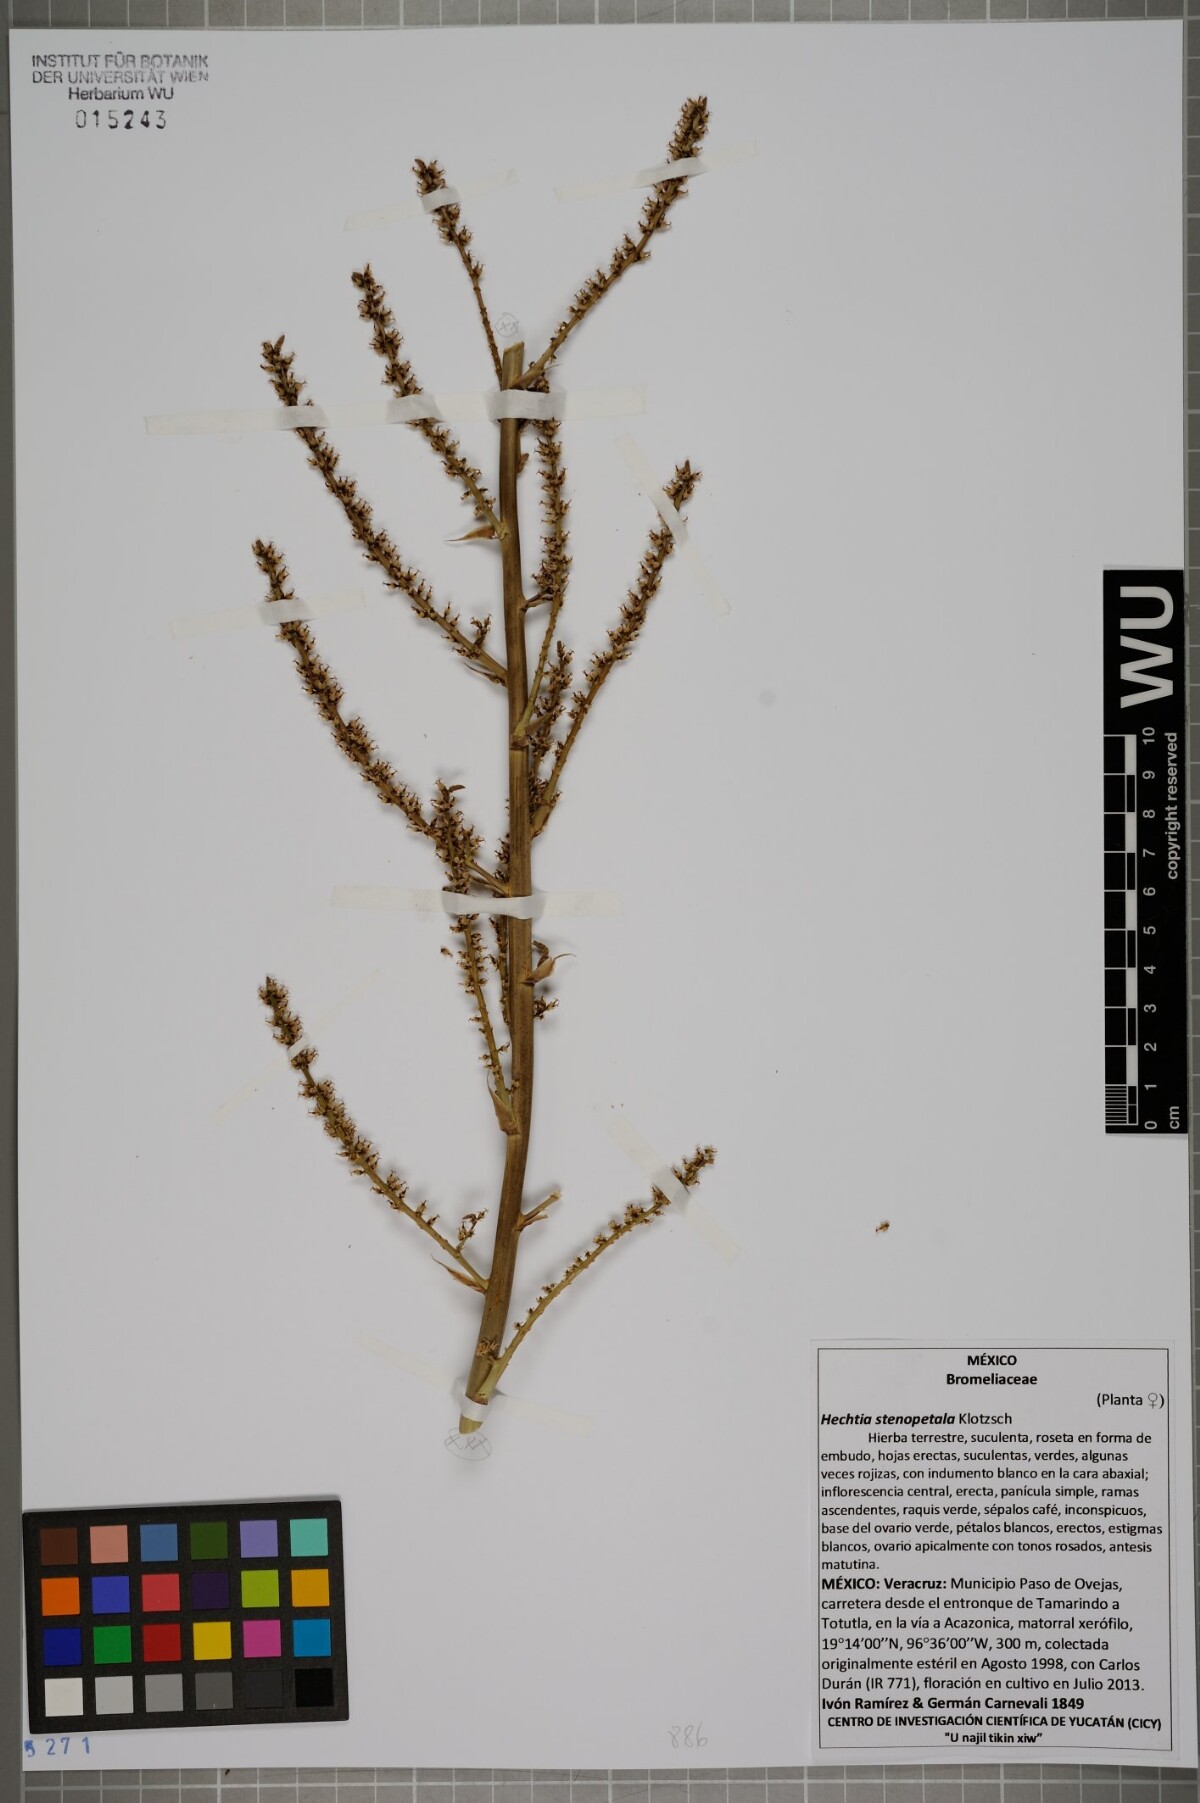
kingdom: Plantae
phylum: Tracheophyta
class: Liliopsida
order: Poales
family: Bromeliaceae
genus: Hechtia
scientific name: Hechtia stenopetala
